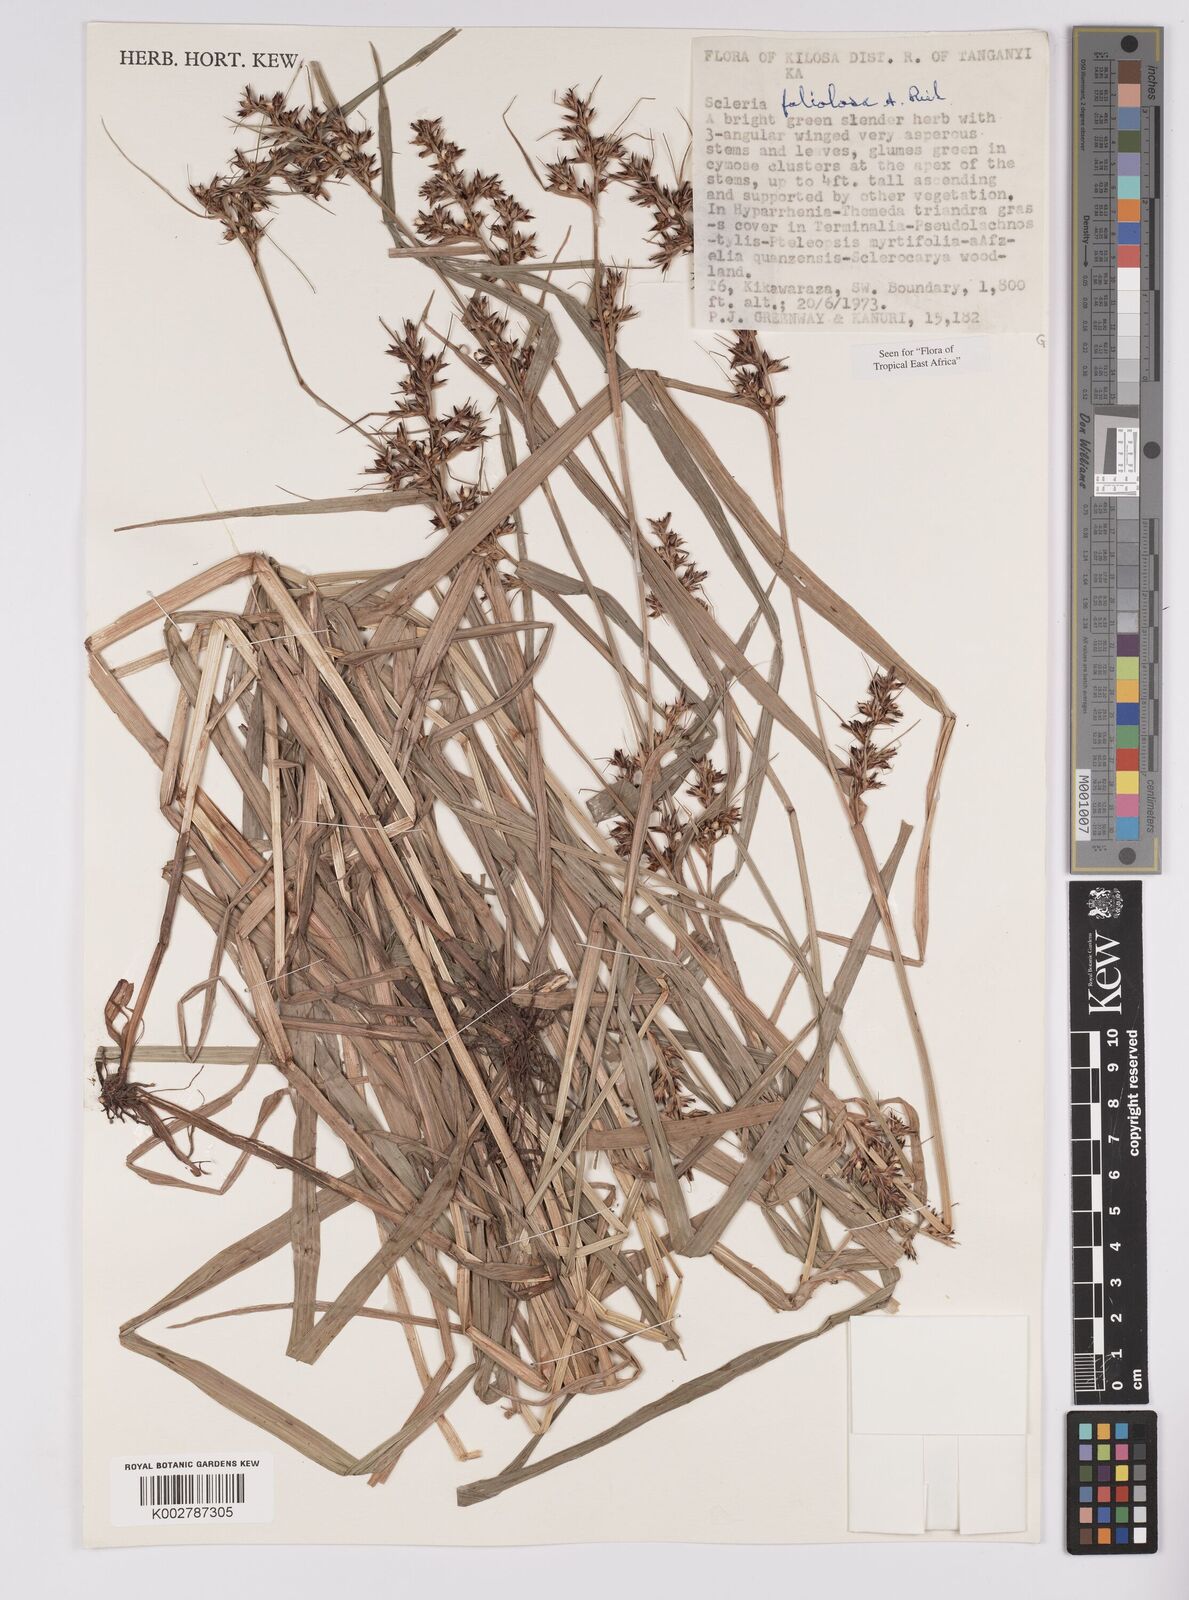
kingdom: Plantae
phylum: Tracheophyta
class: Liliopsida
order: Poales
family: Cyperaceae
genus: Scleria
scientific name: Scleria foliosa
